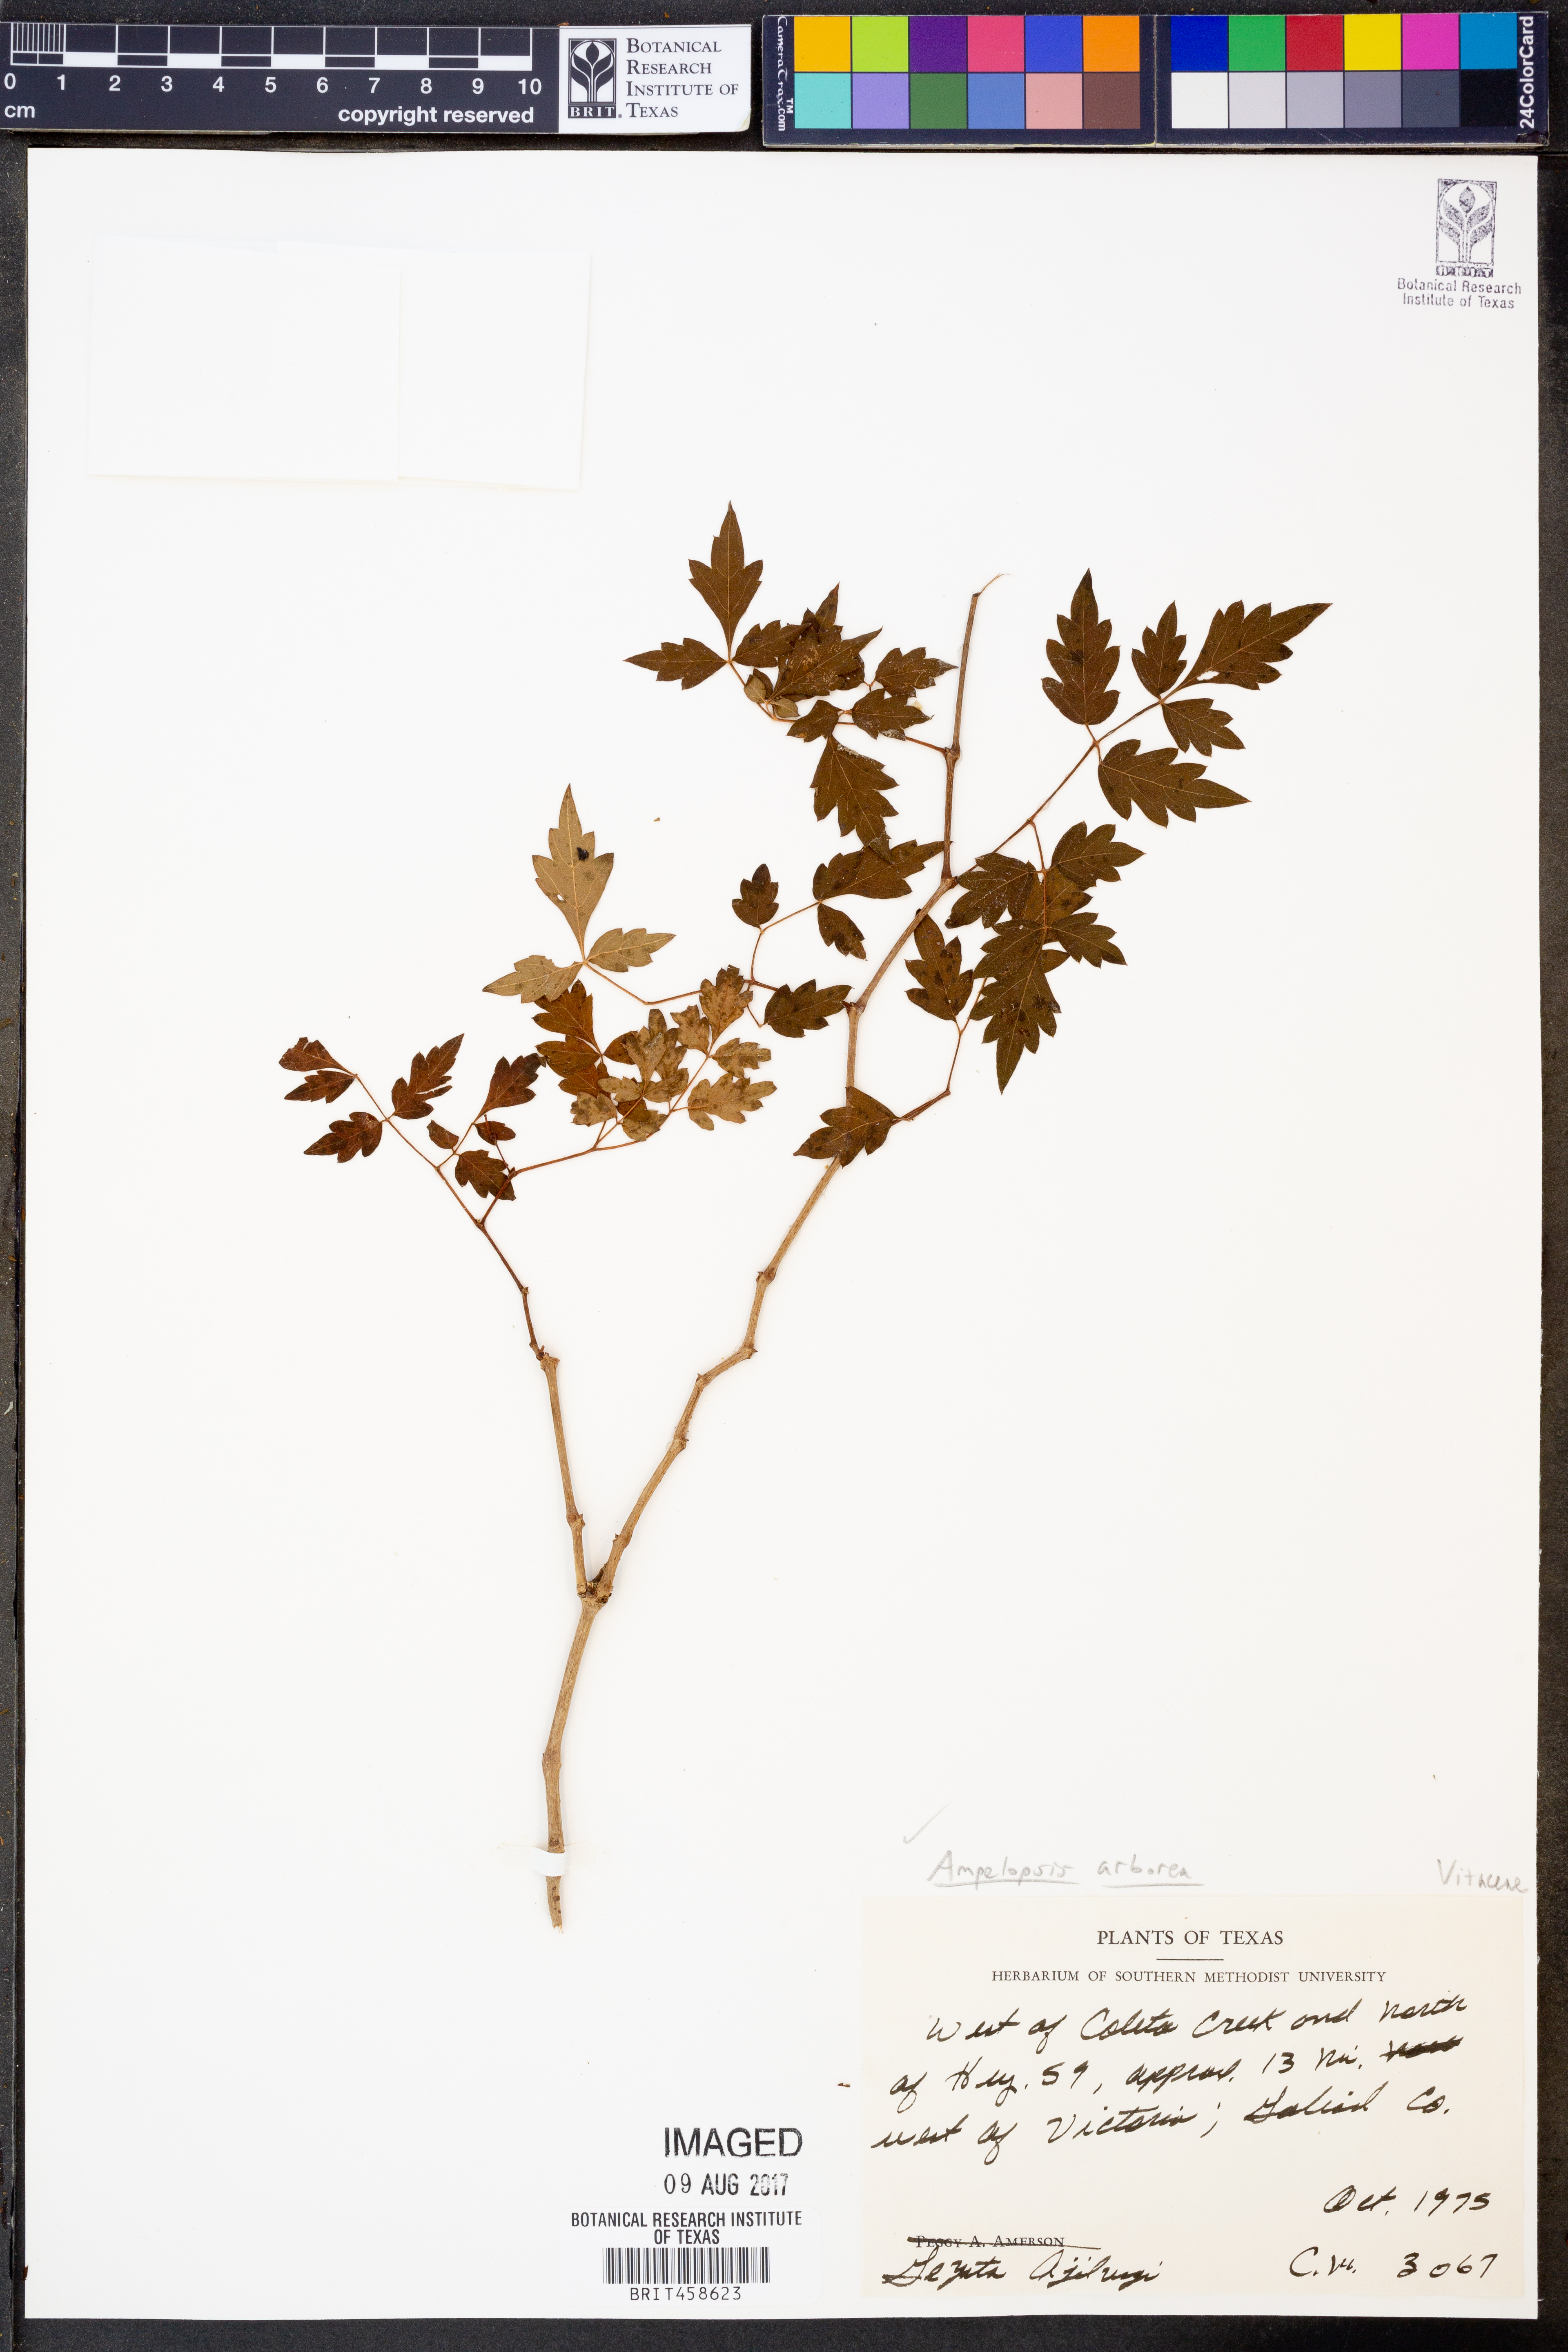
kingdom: Plantae
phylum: Tracheophyta
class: Magnoliopsida
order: Vitales
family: Vitaceae
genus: Nekemias
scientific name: Nekemias arborea
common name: Peppervine
